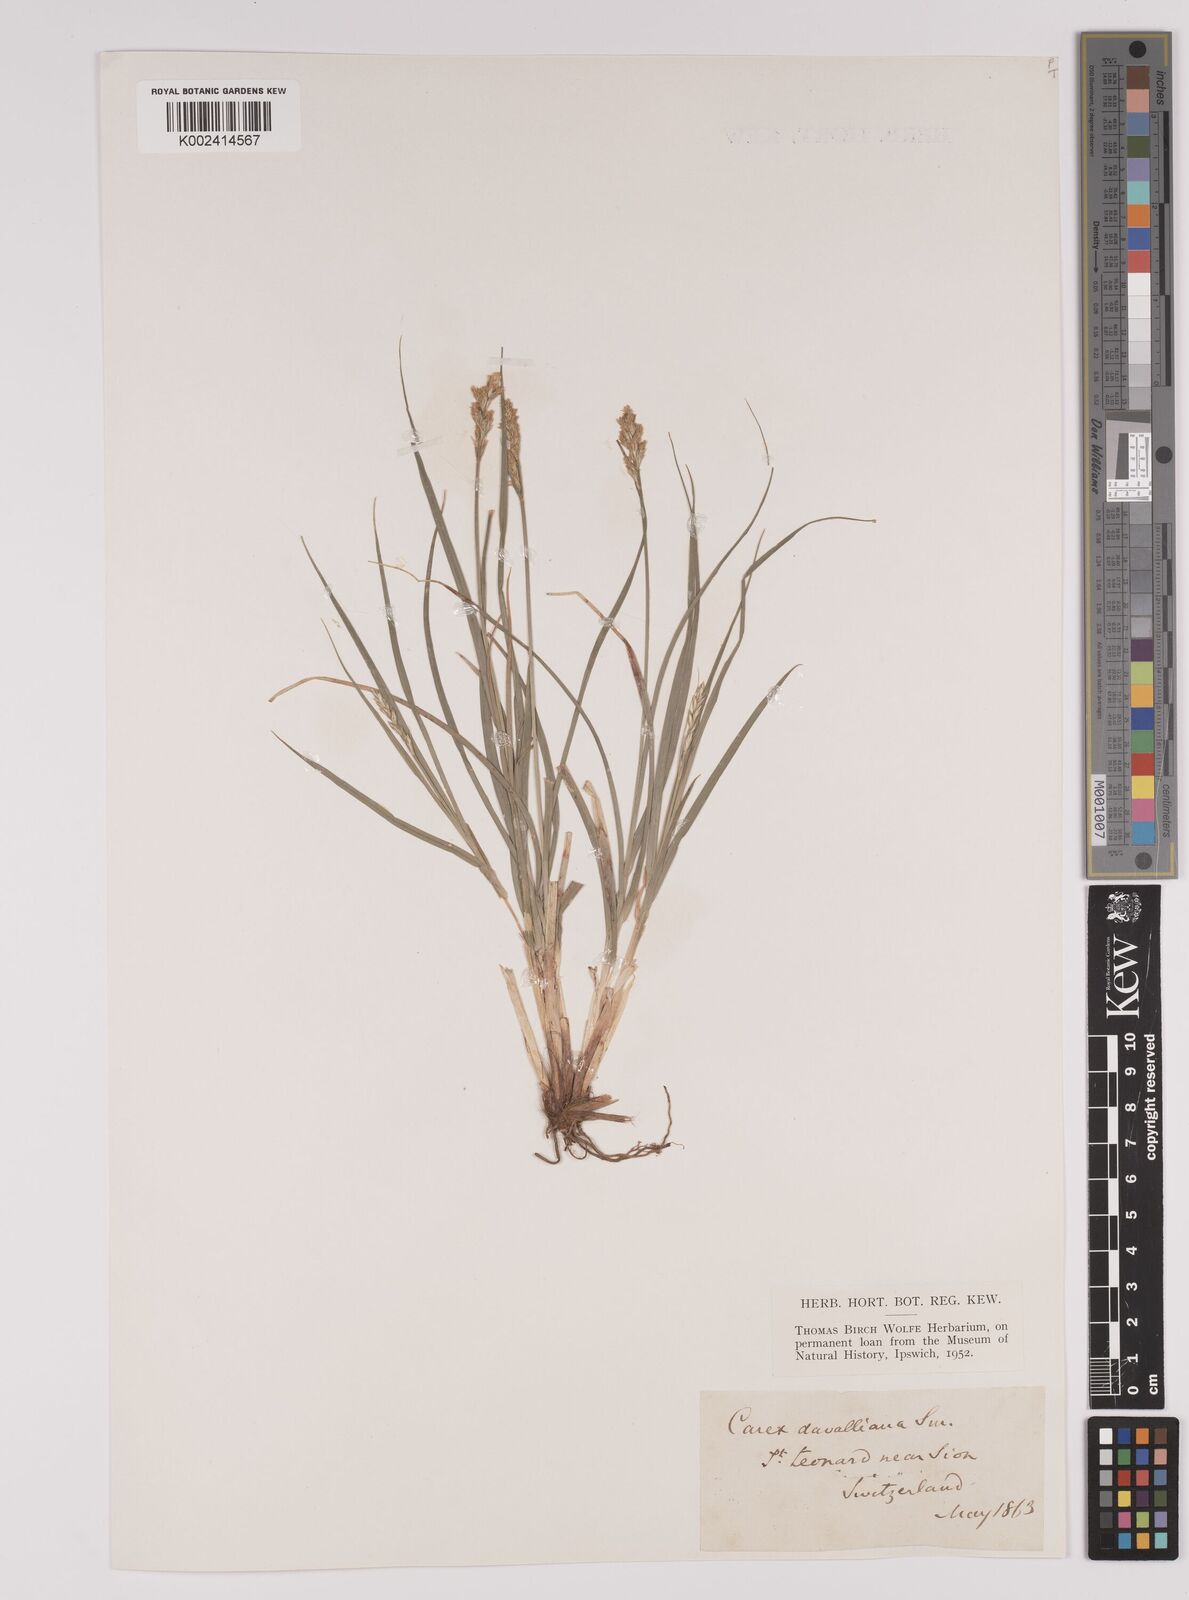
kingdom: Plantae
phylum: Tracheophyta
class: Liliopsida
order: Poales
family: Cyperaceae
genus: Carex
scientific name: Carex davalliana
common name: Davall's sedge
